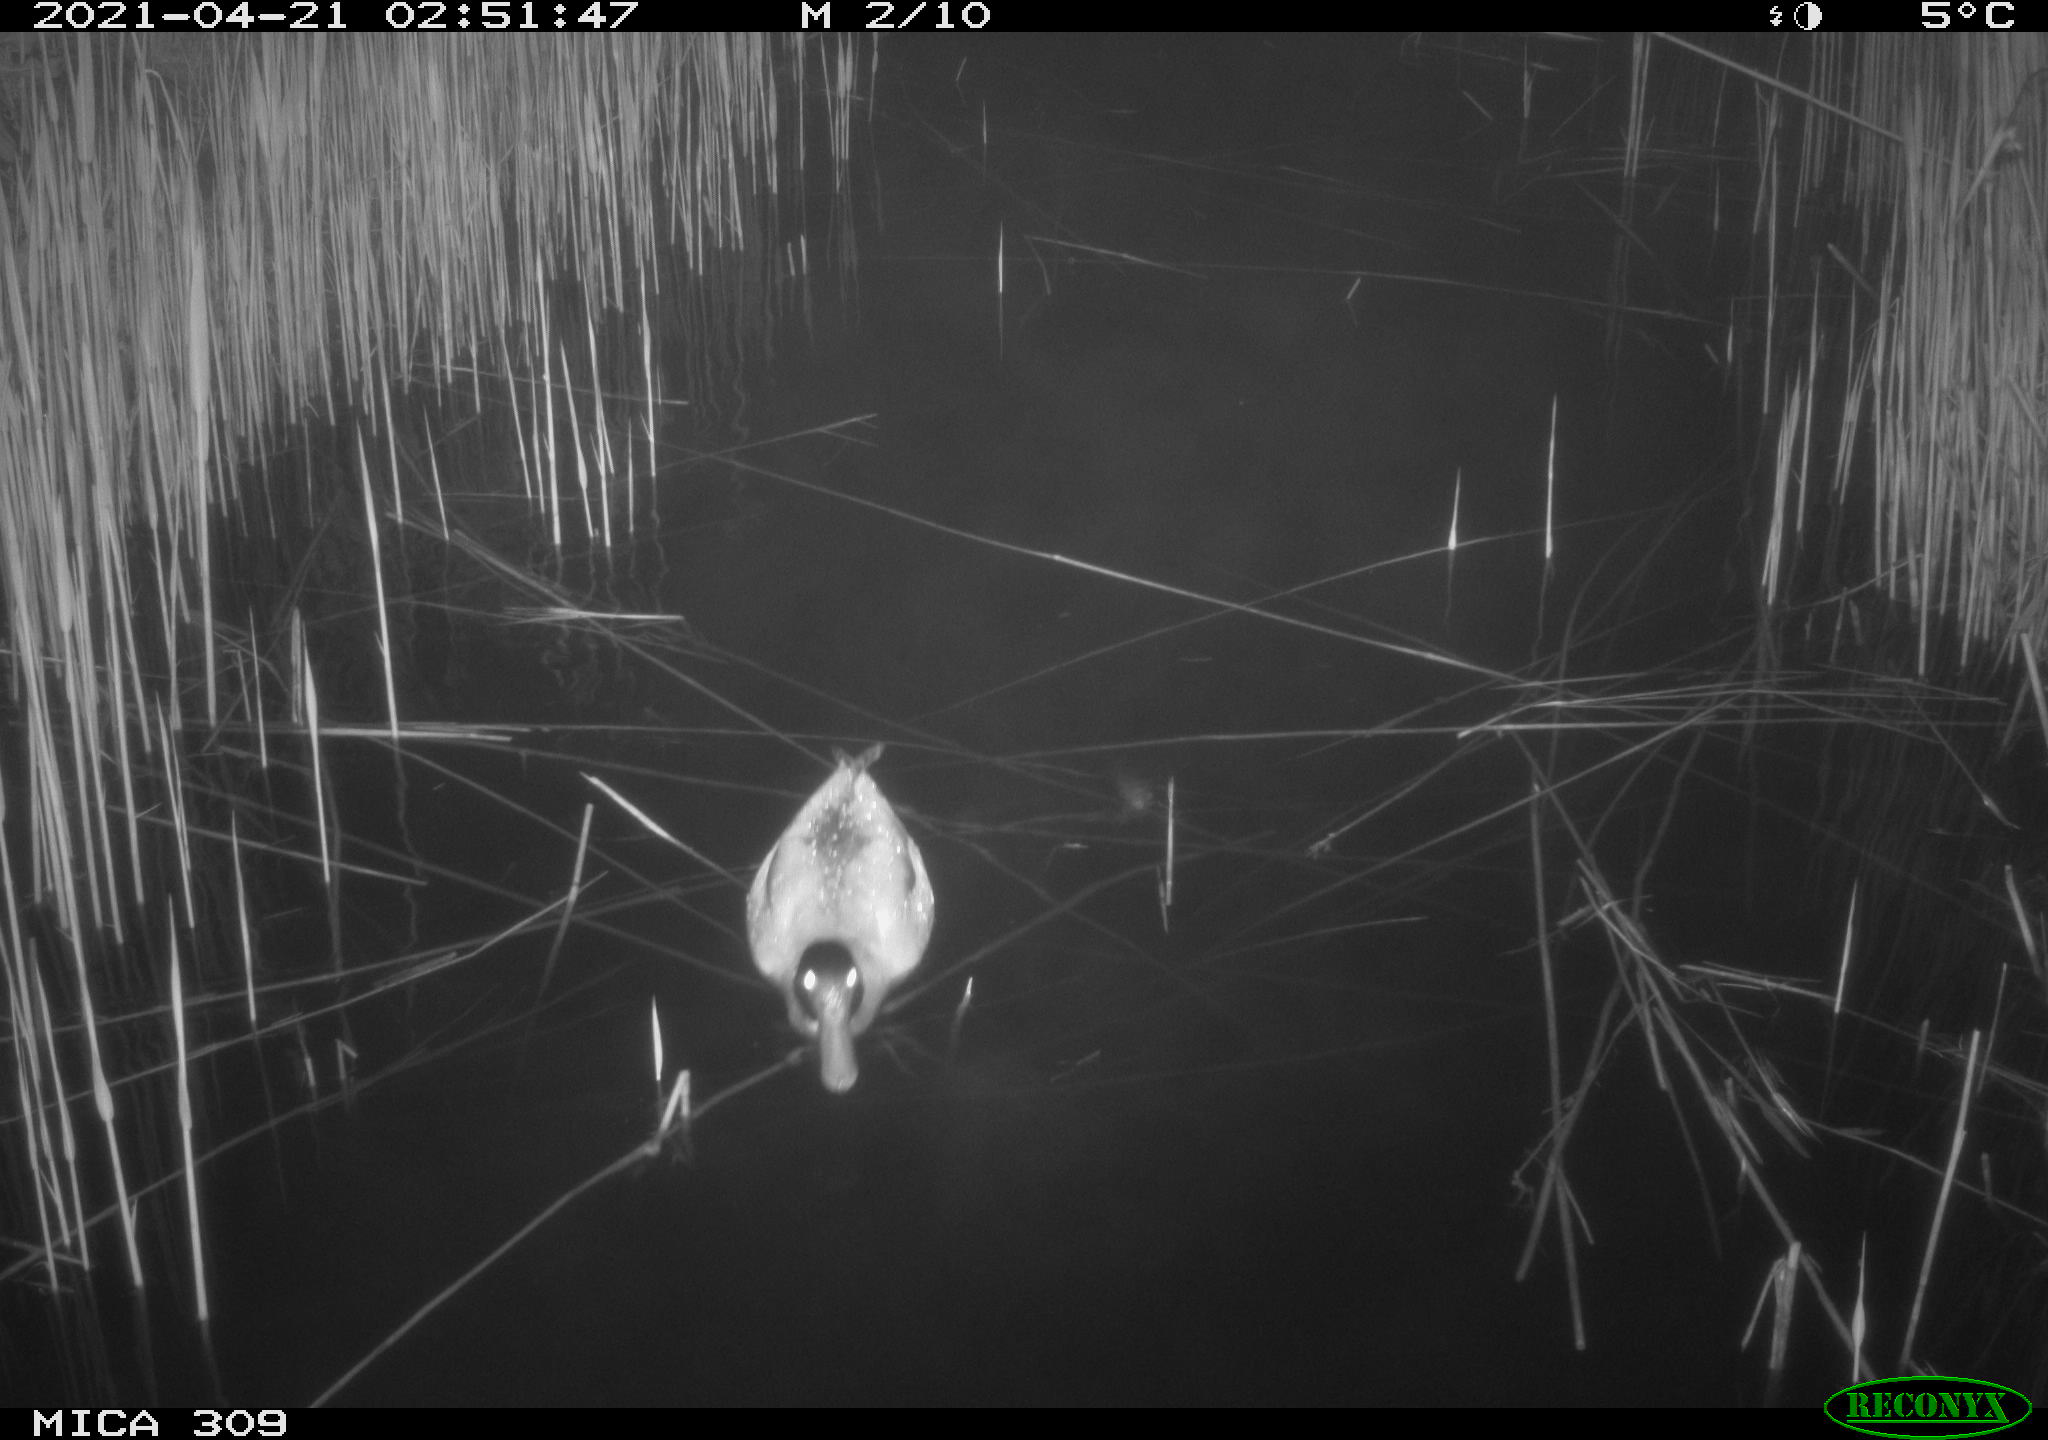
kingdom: Animalia
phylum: Chordata
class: Aves
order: Anseriformes
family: Anatidae
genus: Anas
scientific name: Anas platyrhynchos
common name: Mallard
